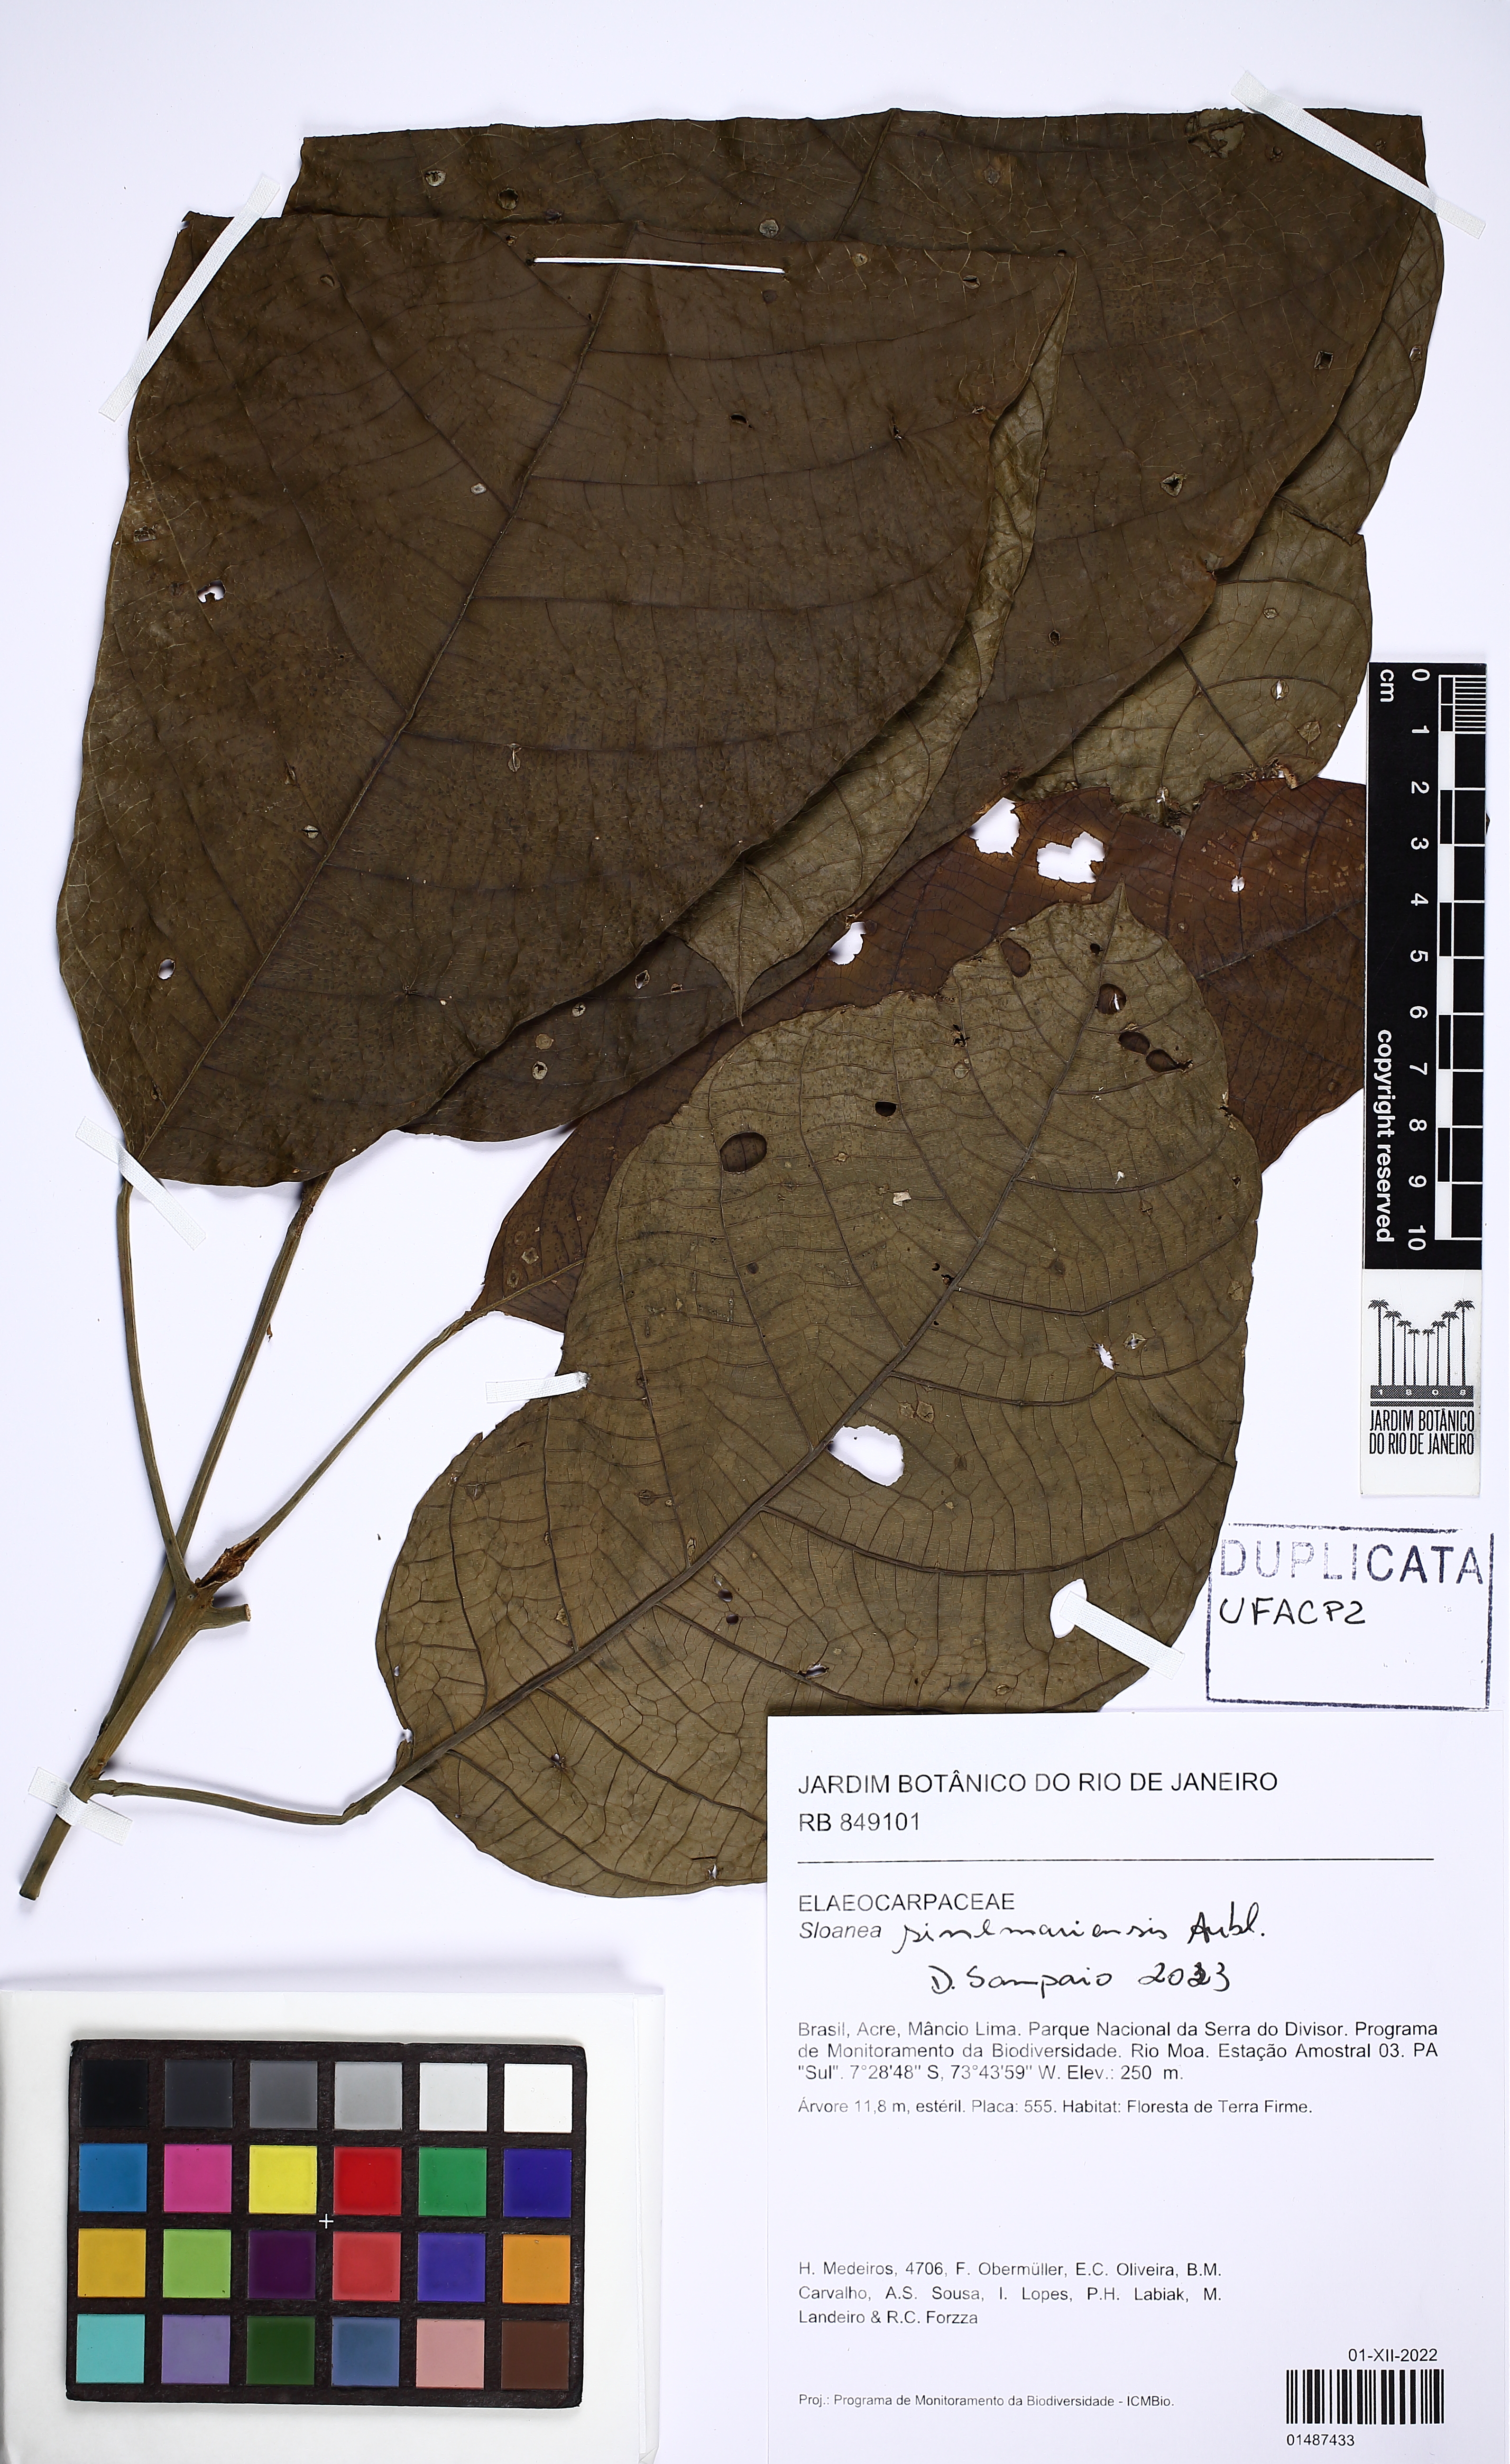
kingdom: Plantae
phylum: Tracheophyta
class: Magnoliopsida
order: Oxalidales
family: Elaeocarpaceae
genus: Sloanea
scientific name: Sloanea sinemariensis
